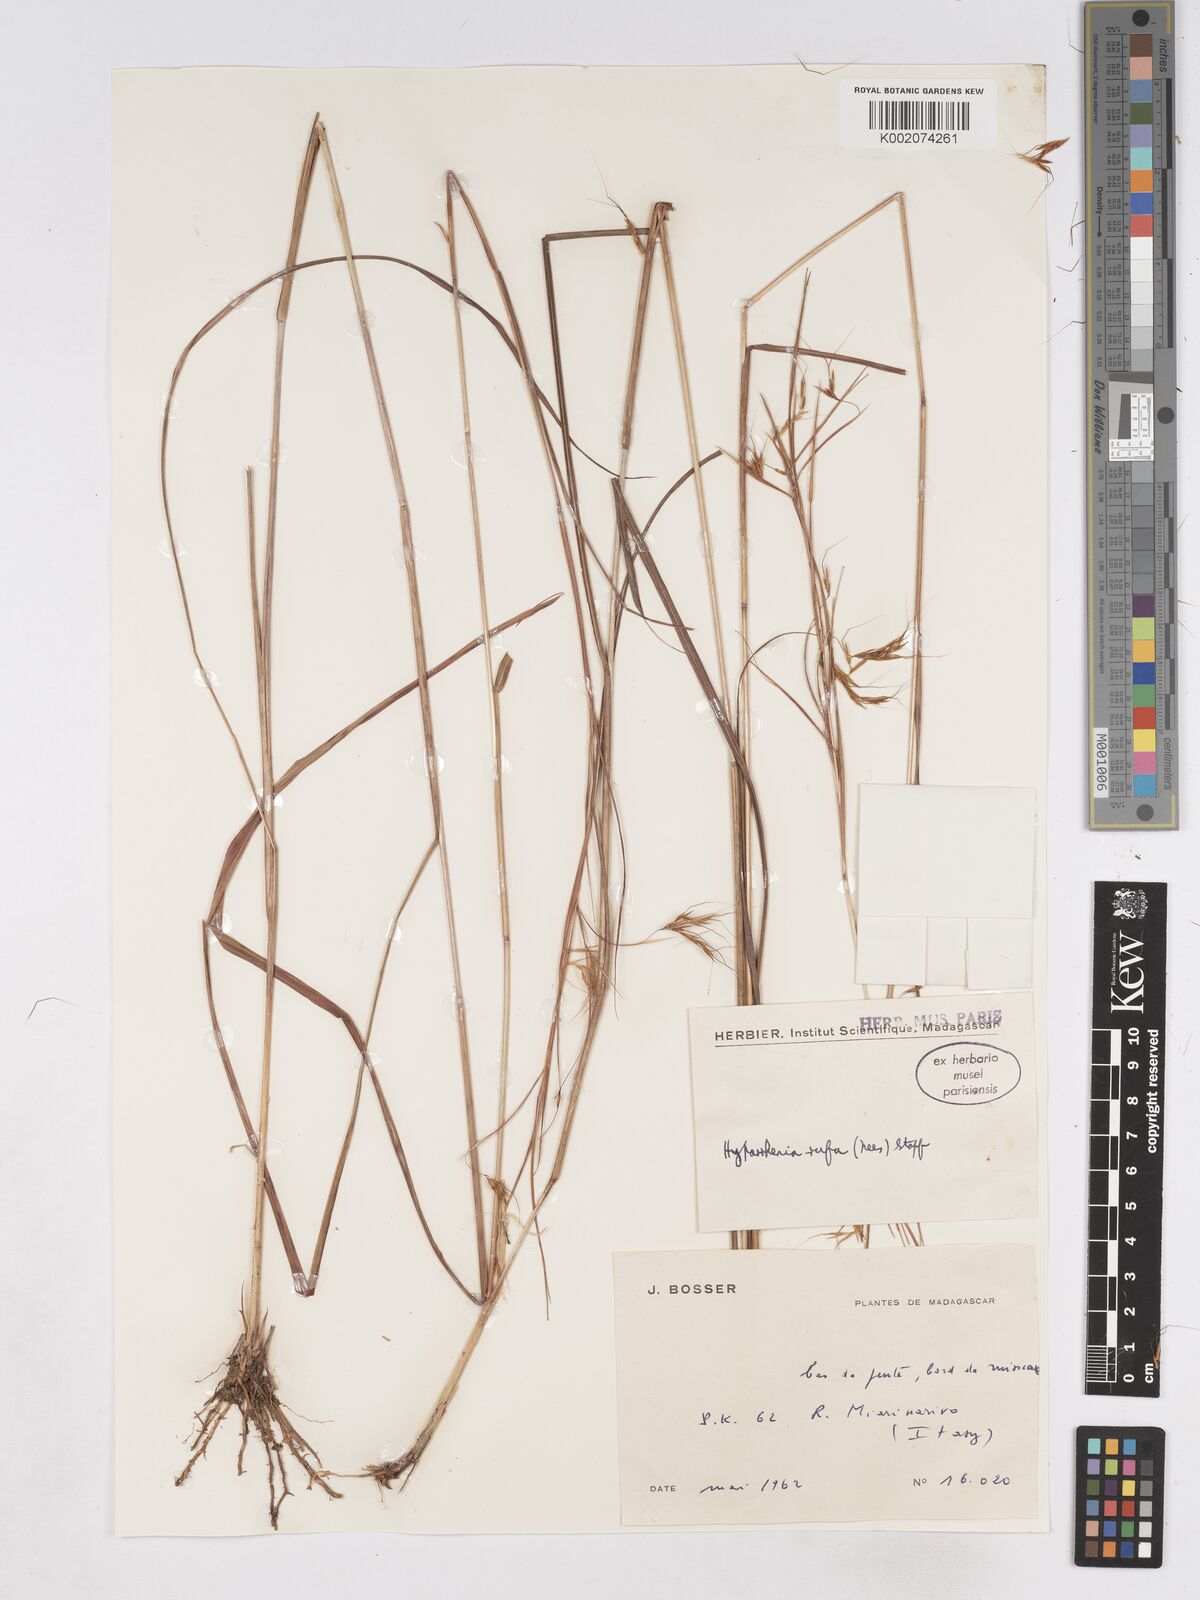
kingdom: Plantae
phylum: Tracheophyta
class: Liliopsida
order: Poales
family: Poaceae
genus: Hyparrhenia
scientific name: Hyparrhenia rufa
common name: Jaraguagrass
